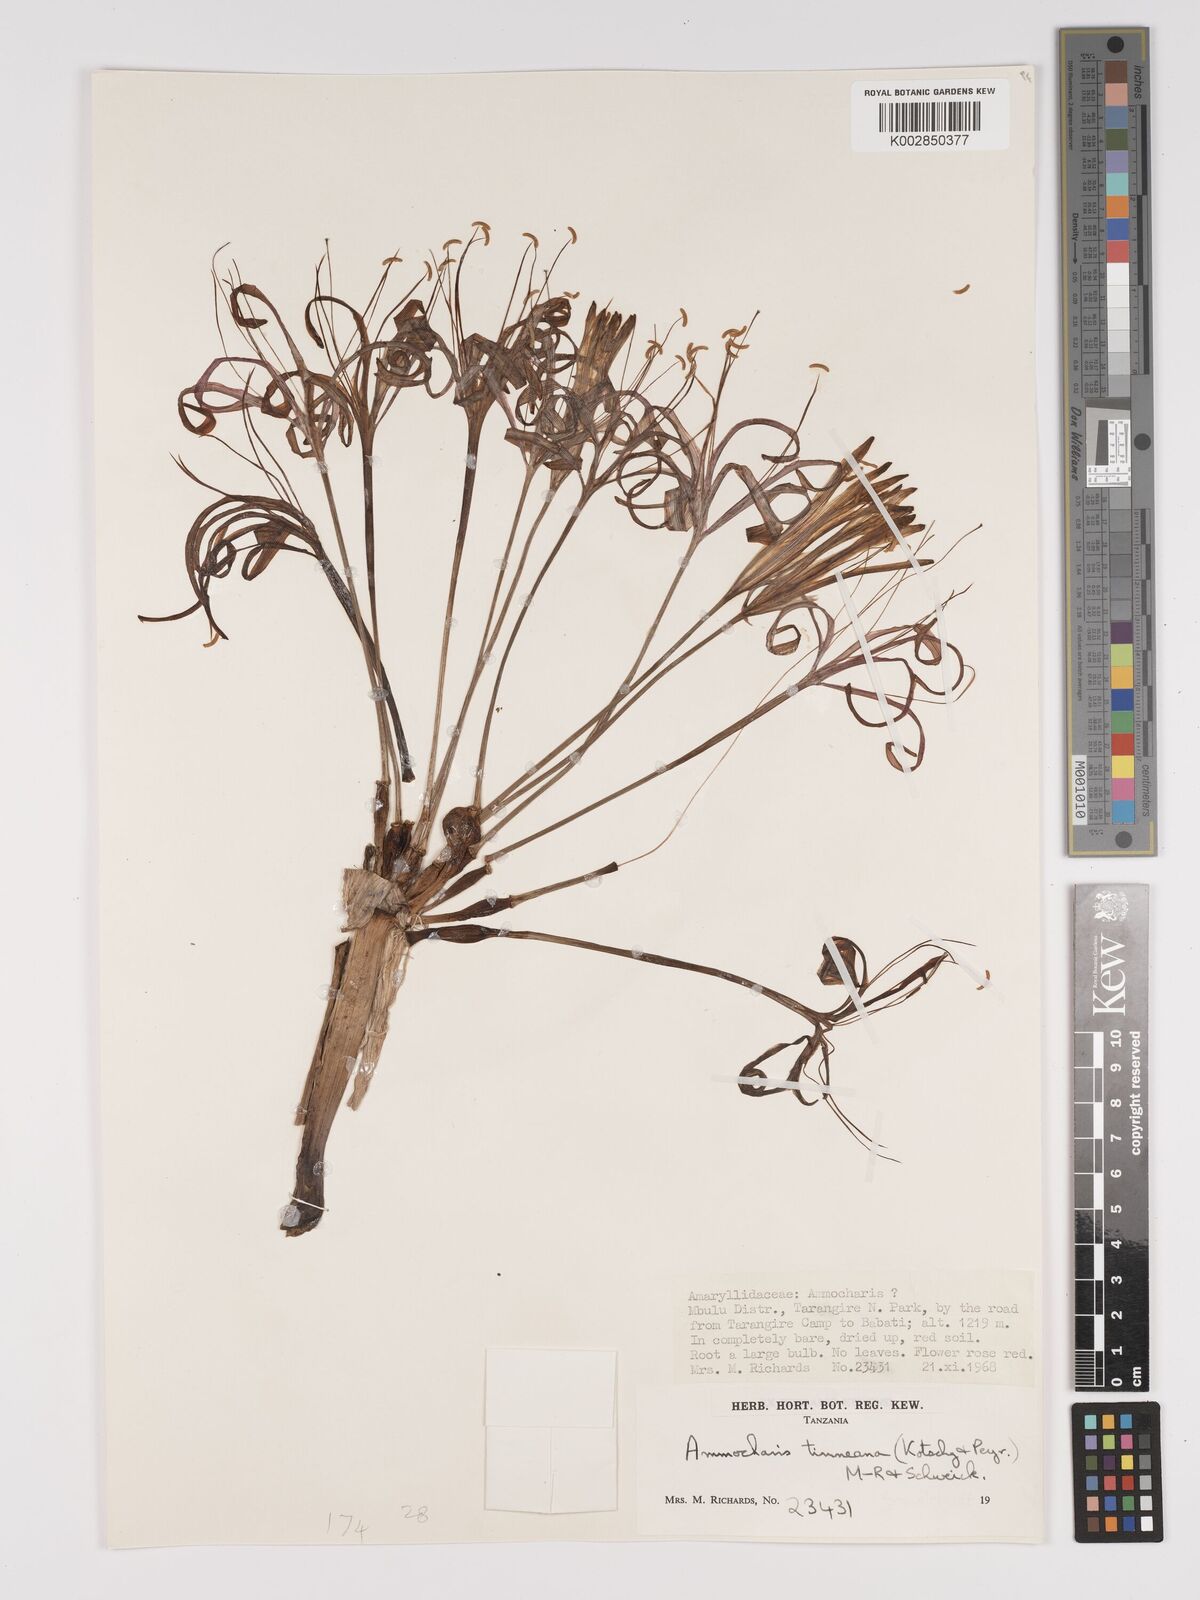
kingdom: Plantae
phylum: Tracheophyta
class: Liliopsida
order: Asparagales
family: Amaryllidaceae
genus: Ammocharis
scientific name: Ammocharis tinneana
